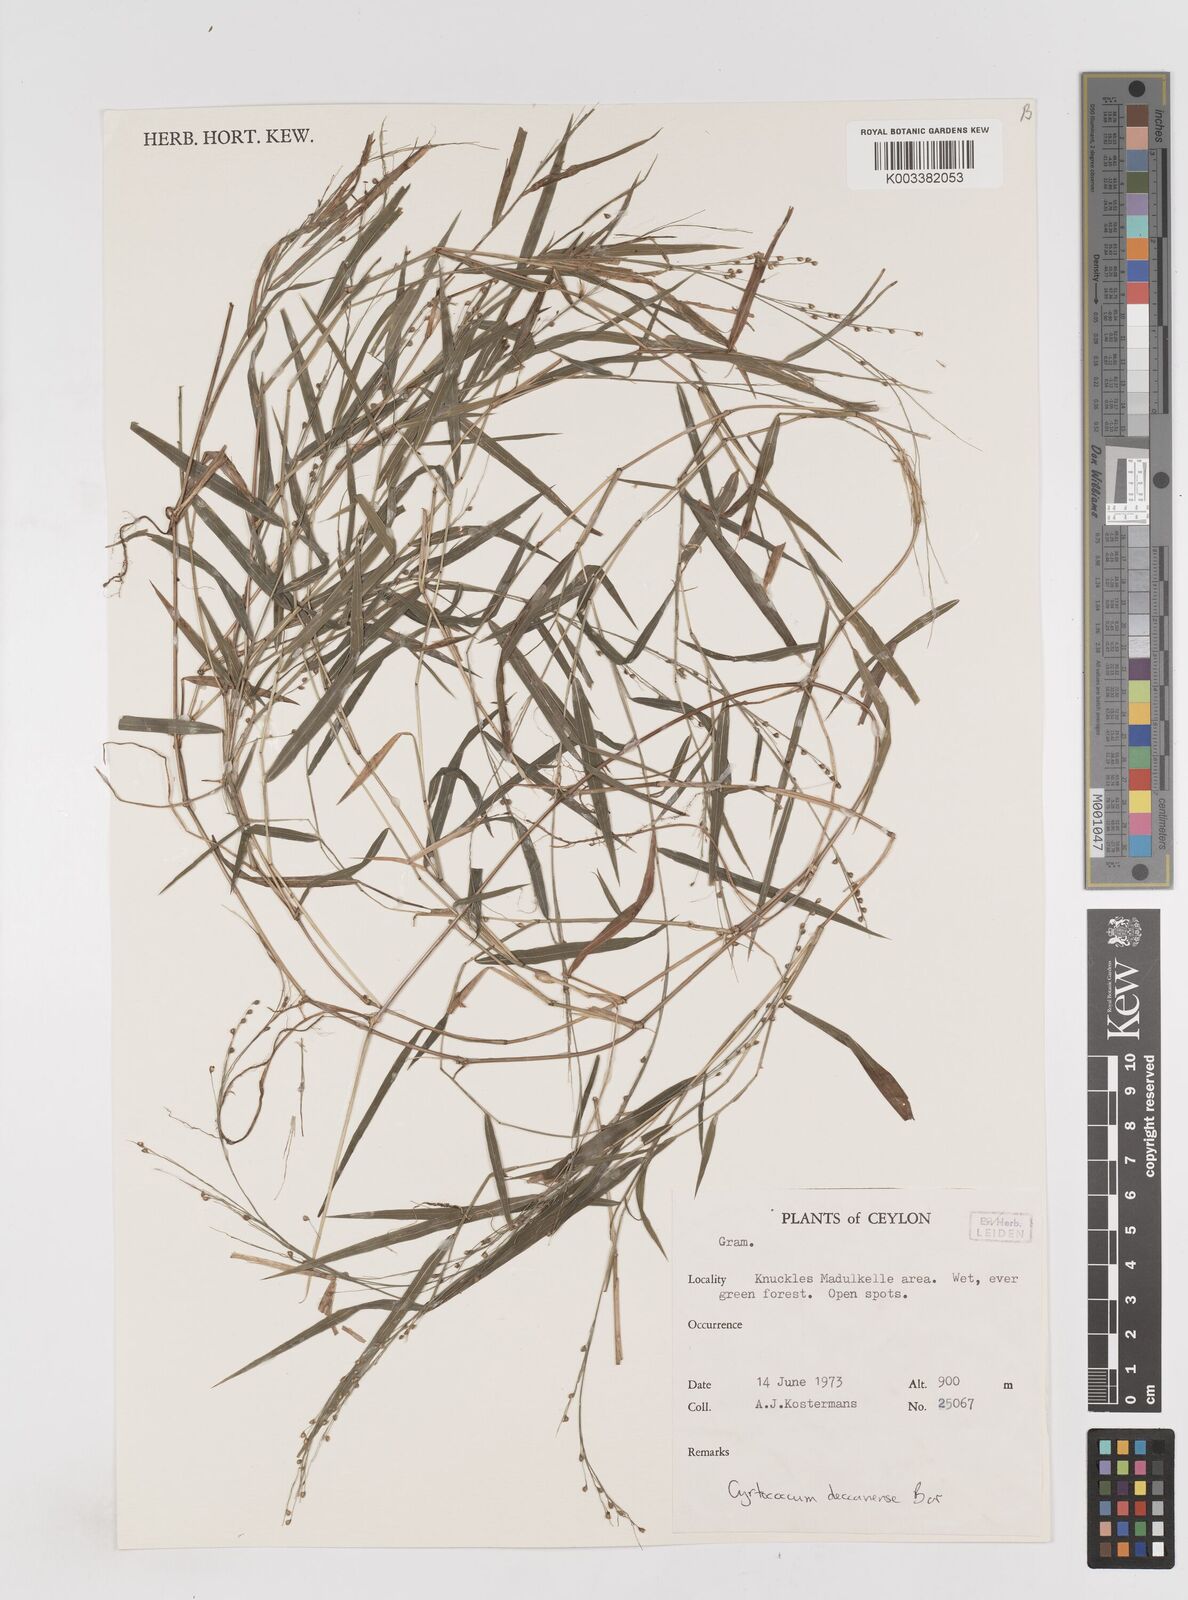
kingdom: Plantae
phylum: Tracheophyta
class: Liliopsida
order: Poales
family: Poaceae
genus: Cyrtococcum
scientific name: Cyrtococcum deccanense
